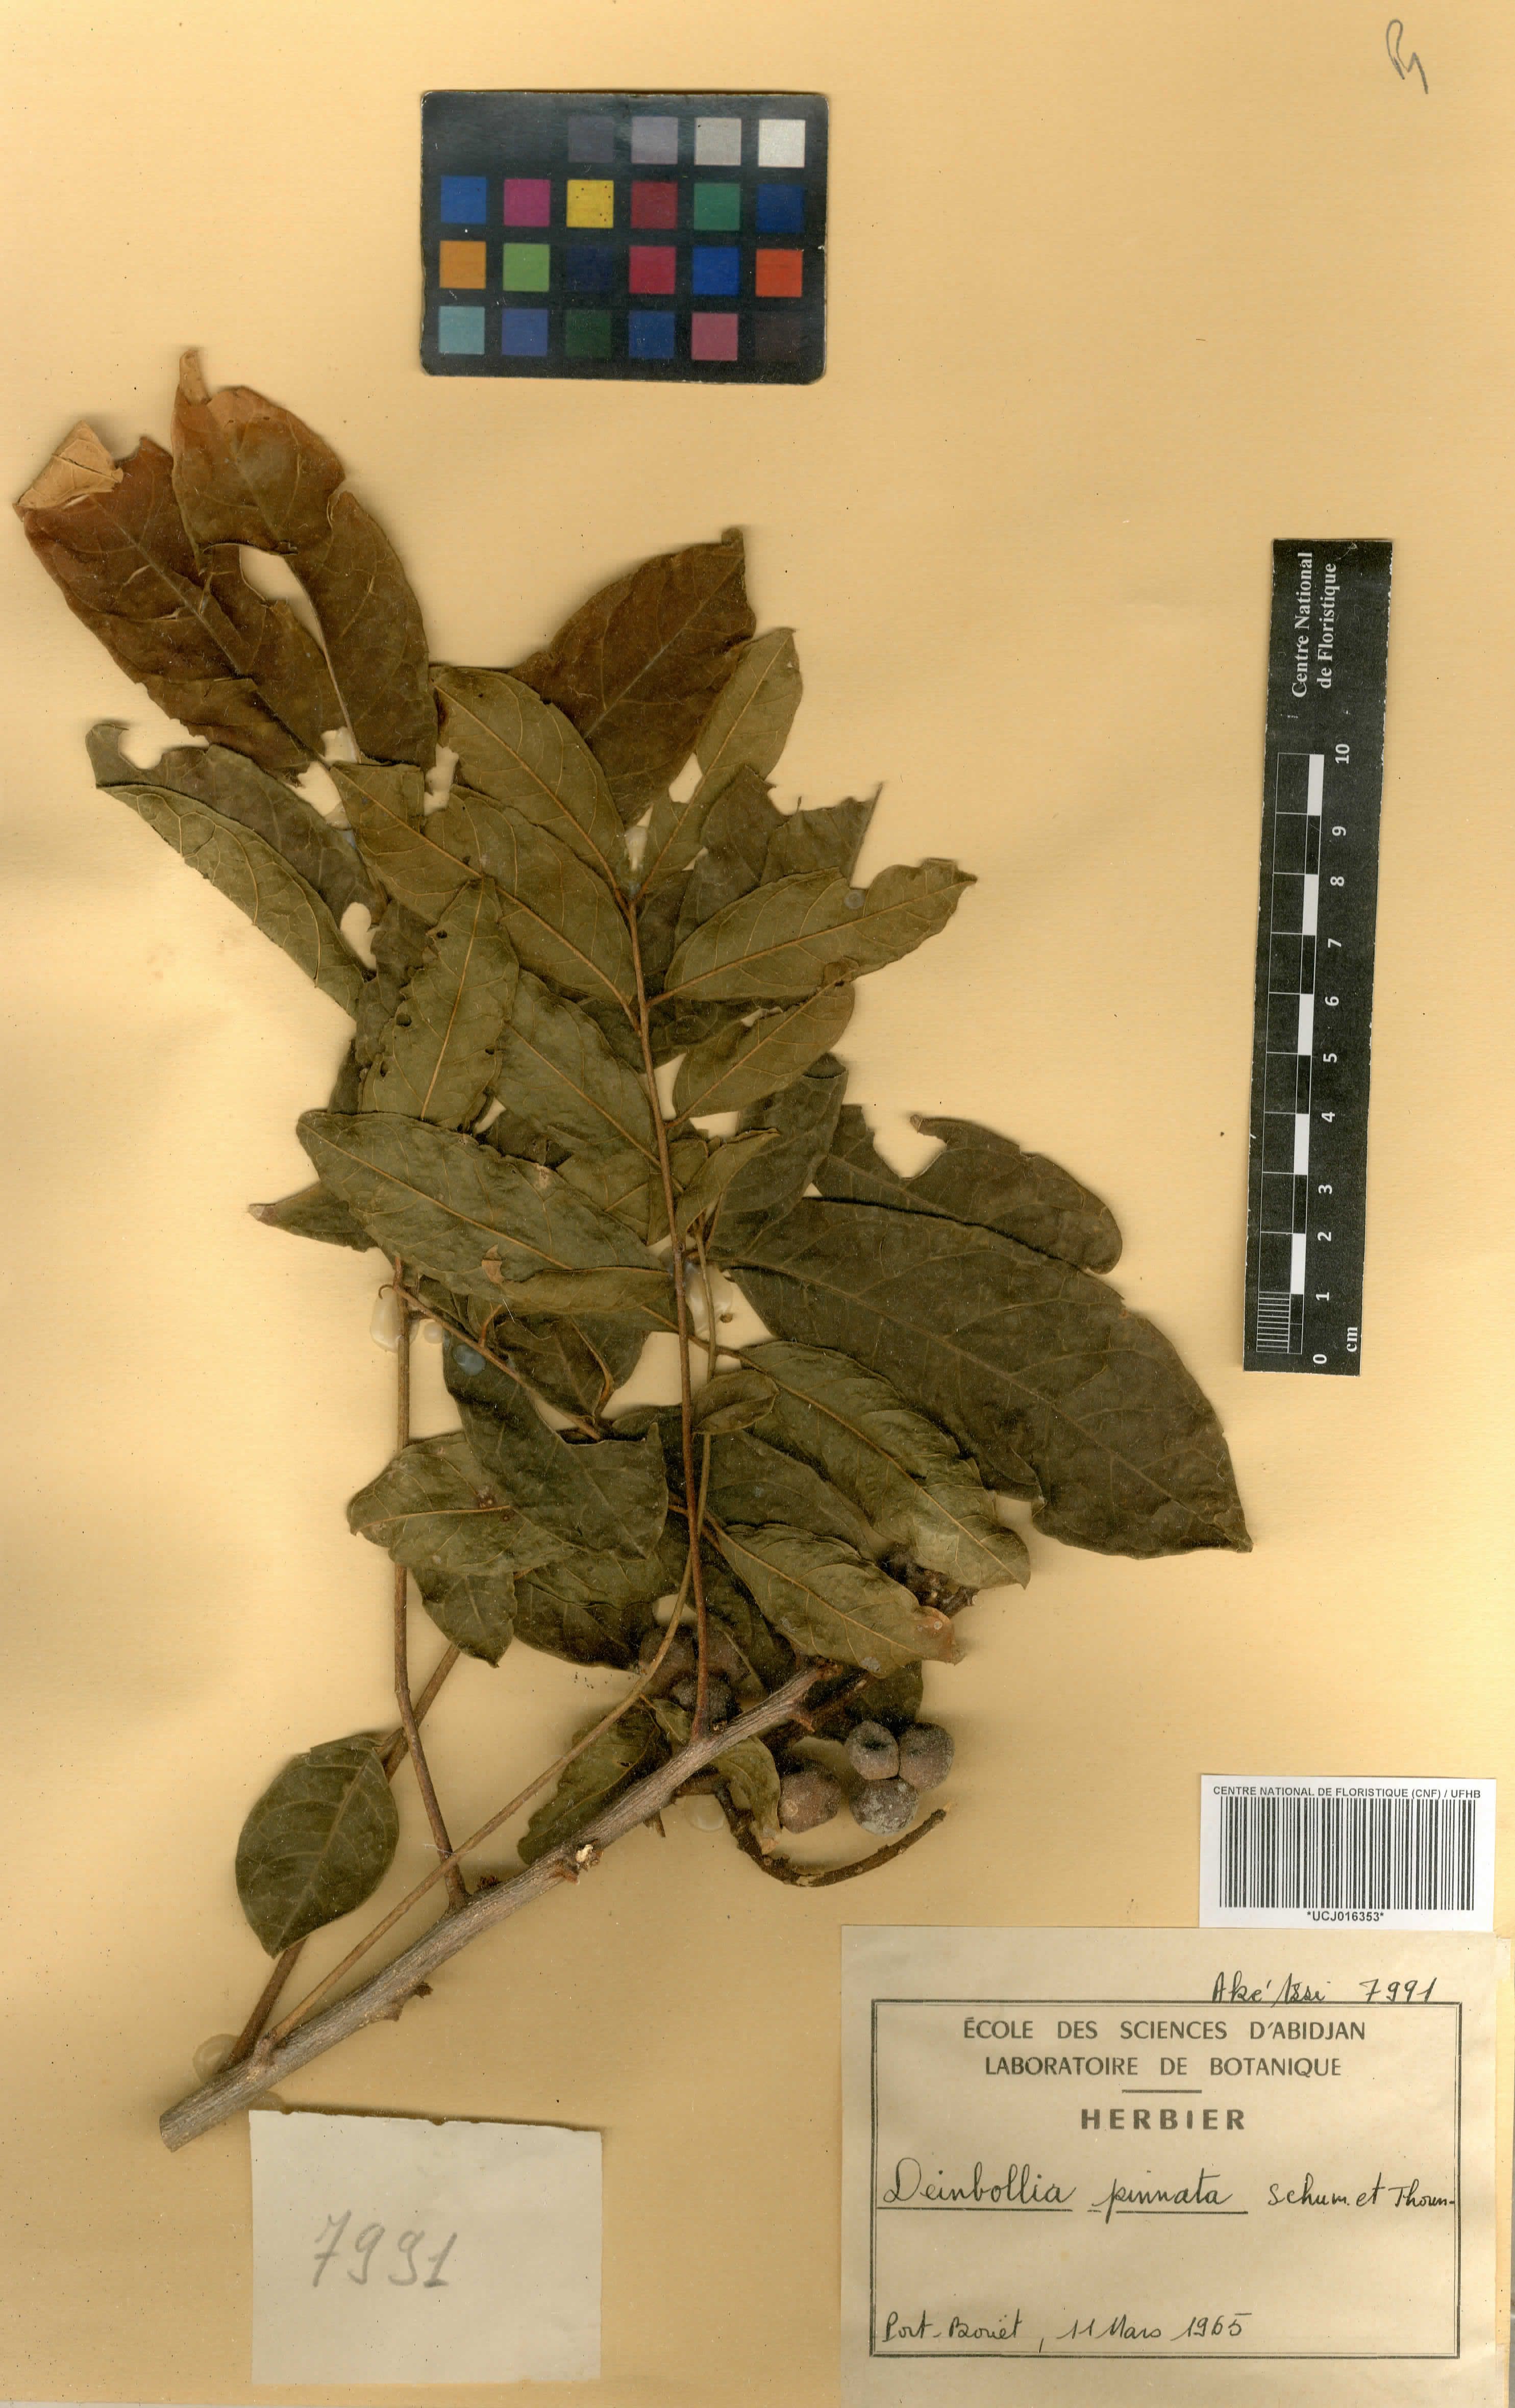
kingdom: Plantae
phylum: Tracheophyta
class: Magnoliopsida
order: Sapindales
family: Sapindaceae
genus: Deinbollia
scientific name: Deinbollia pinnata
